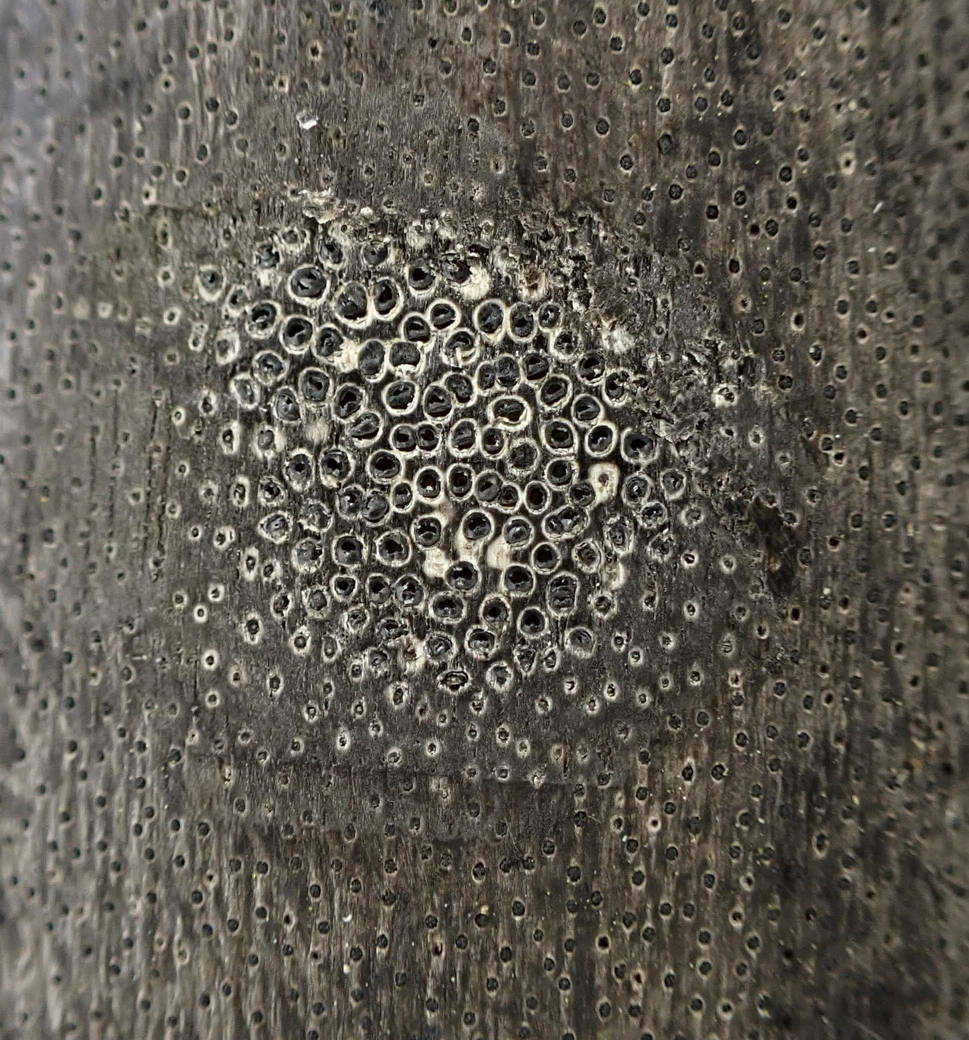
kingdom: Fungi
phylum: Ascomycota
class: Sordariomycetes
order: Xylariales
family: Diatrypaceae
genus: Eutypa
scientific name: Eutypa maura
